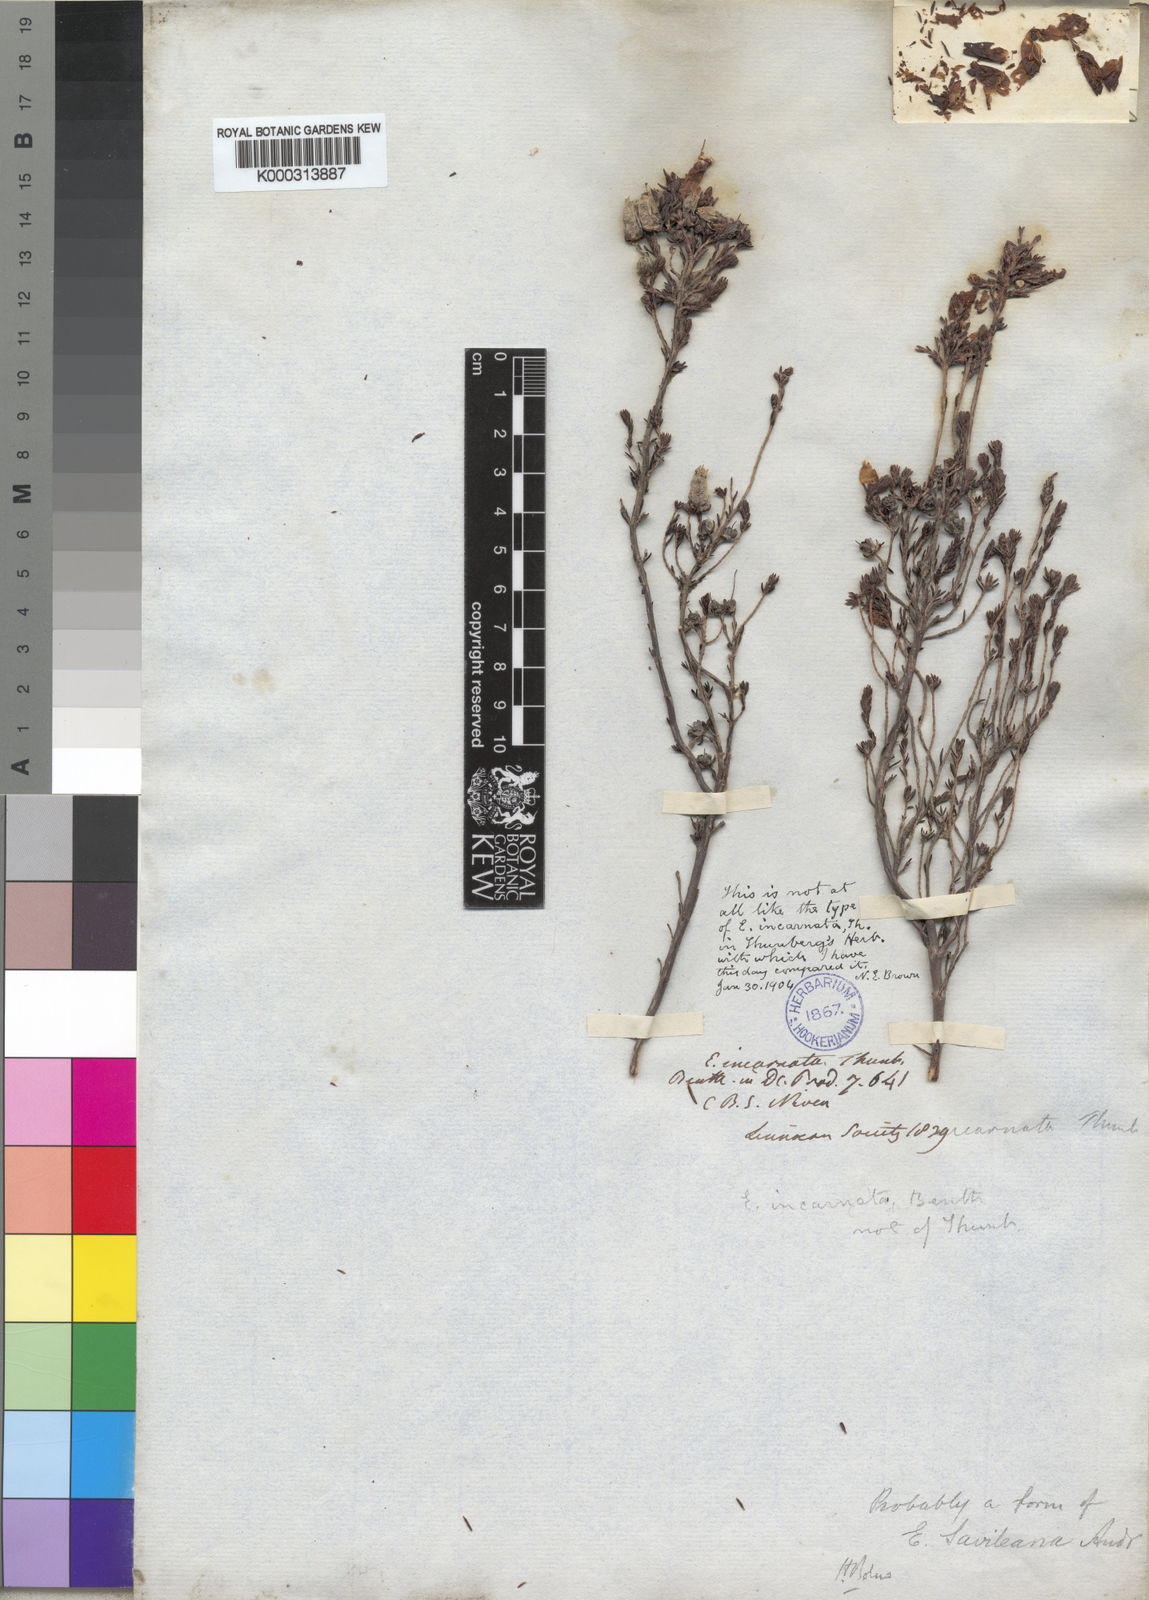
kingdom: Plantae
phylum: Tracheophyta
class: Magnoliopsida
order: Ericales
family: Ericaceae
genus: Erica
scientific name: Erica
